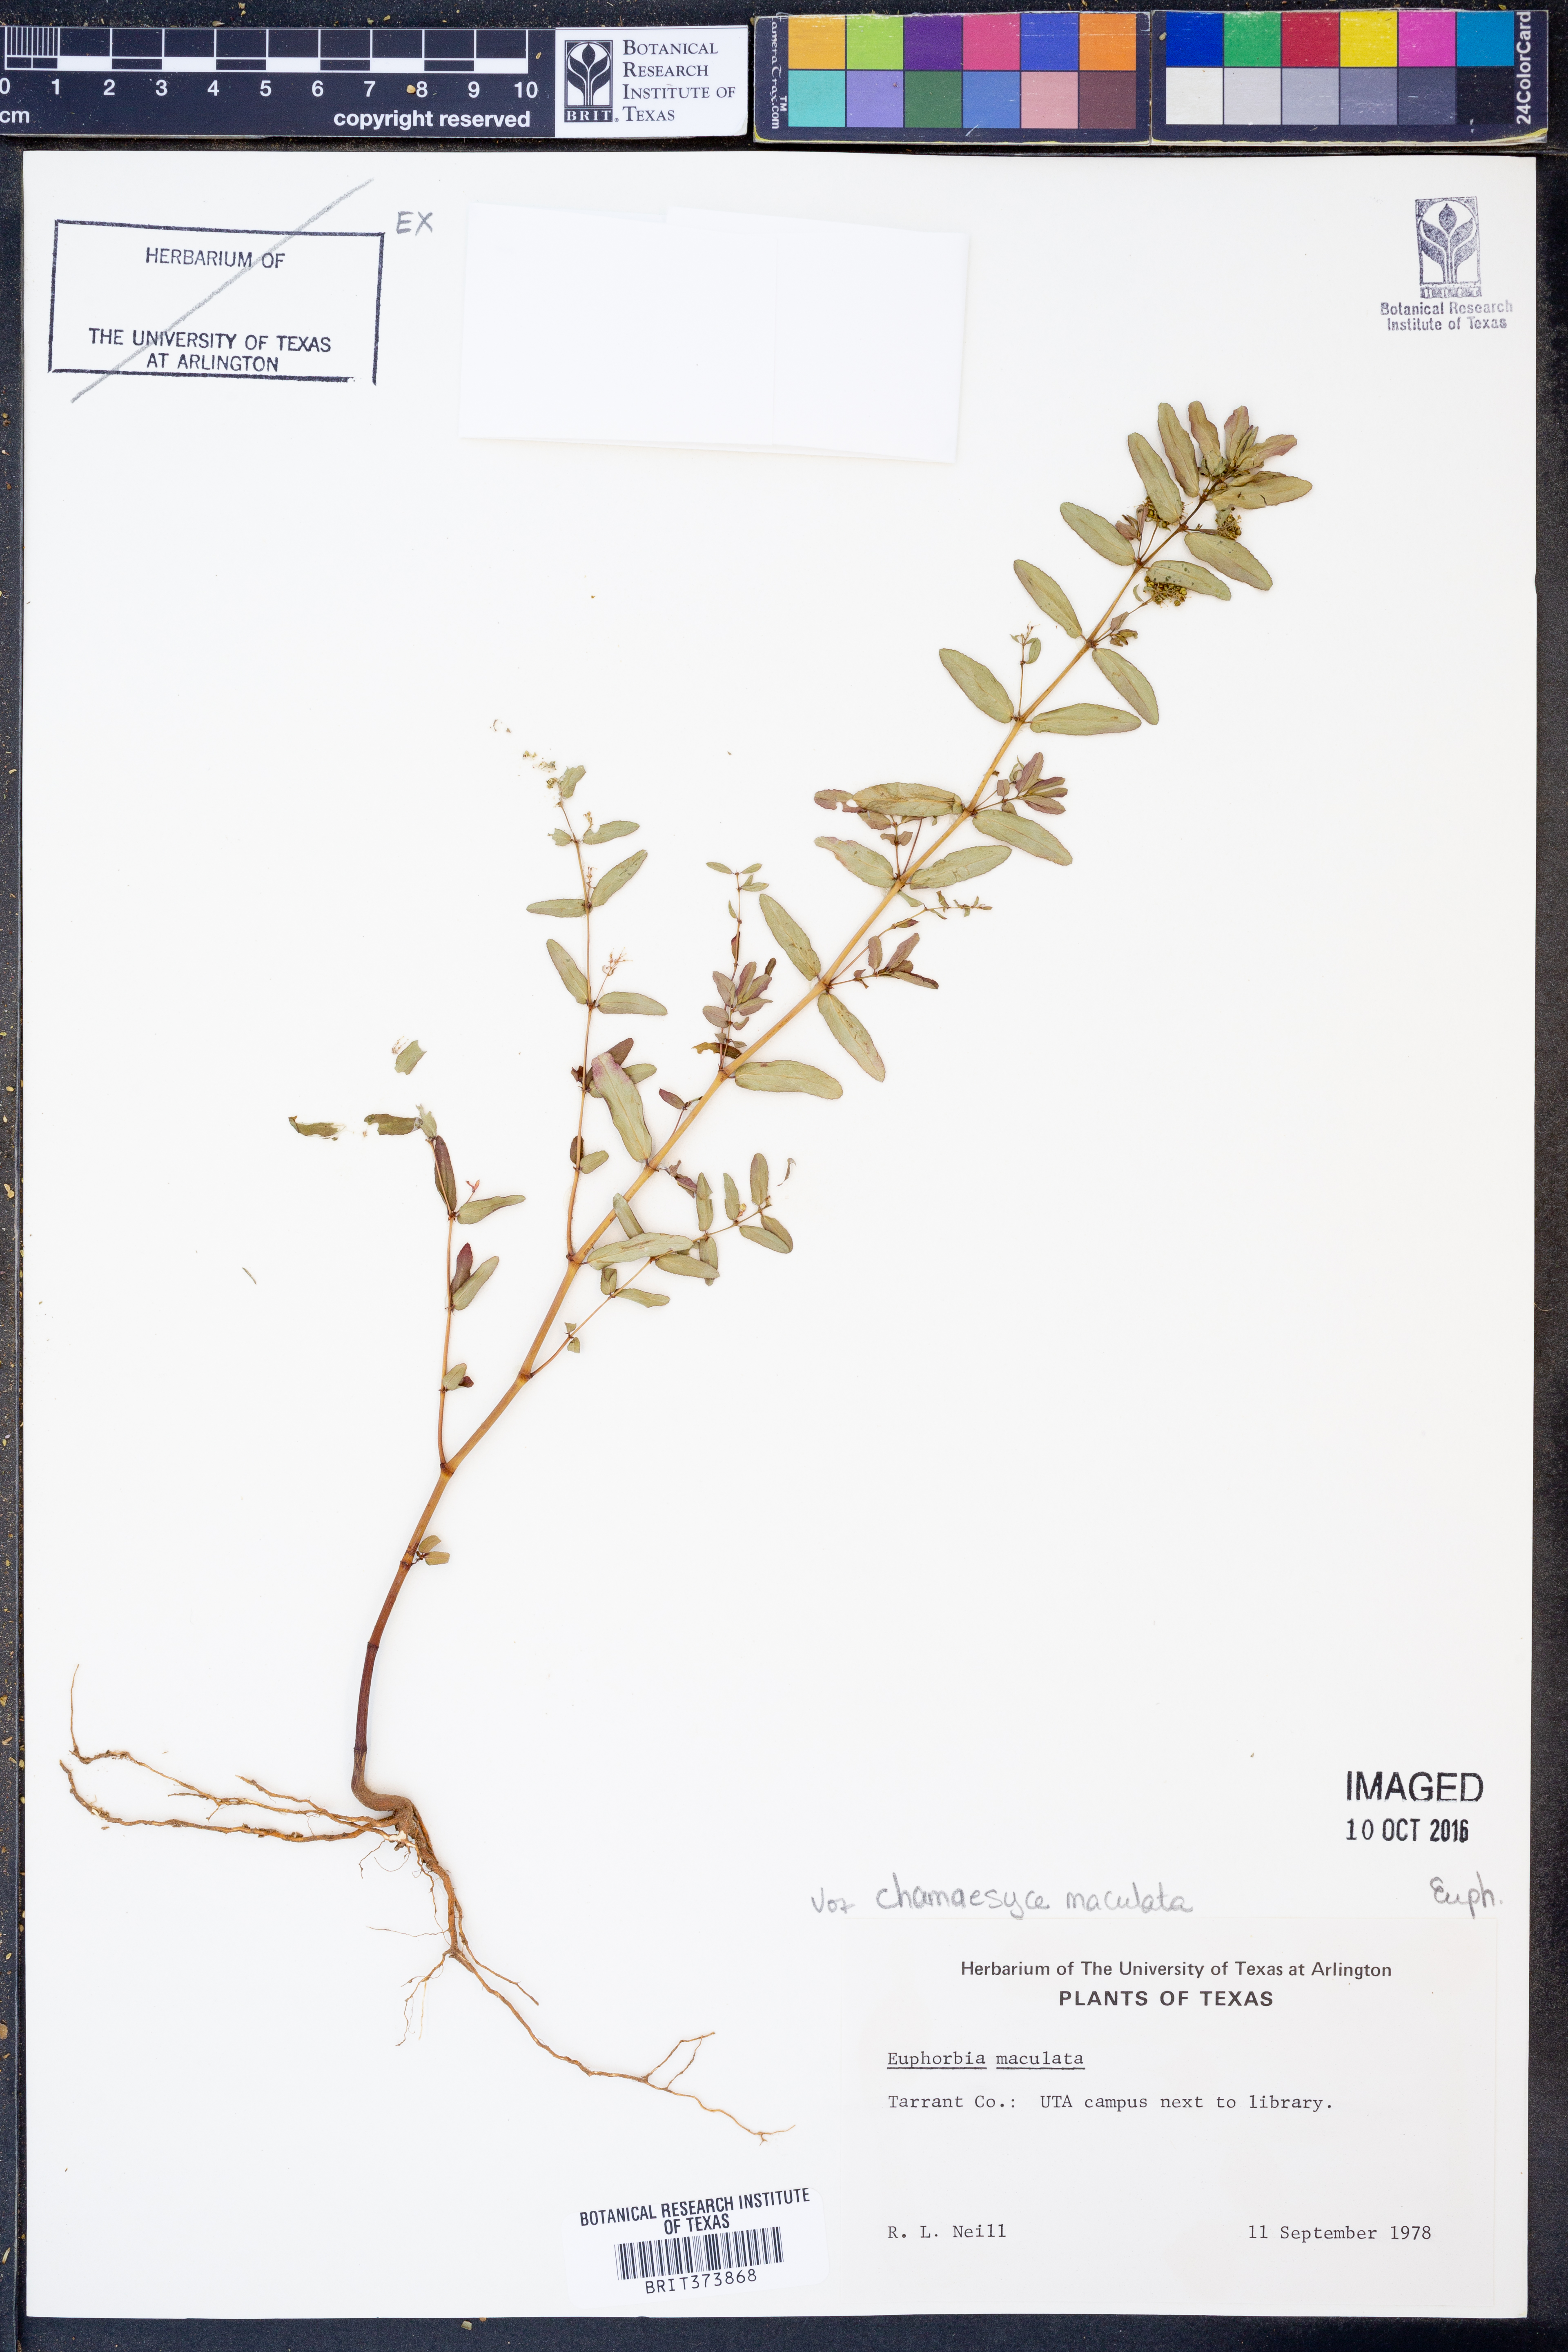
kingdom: Plantae
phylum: Tracheophyta
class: Magnoliopsida
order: Malpighiales
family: Euphorbiaceae
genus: Euphorbia
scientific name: Euphorbia maculata
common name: Spotted spurge
